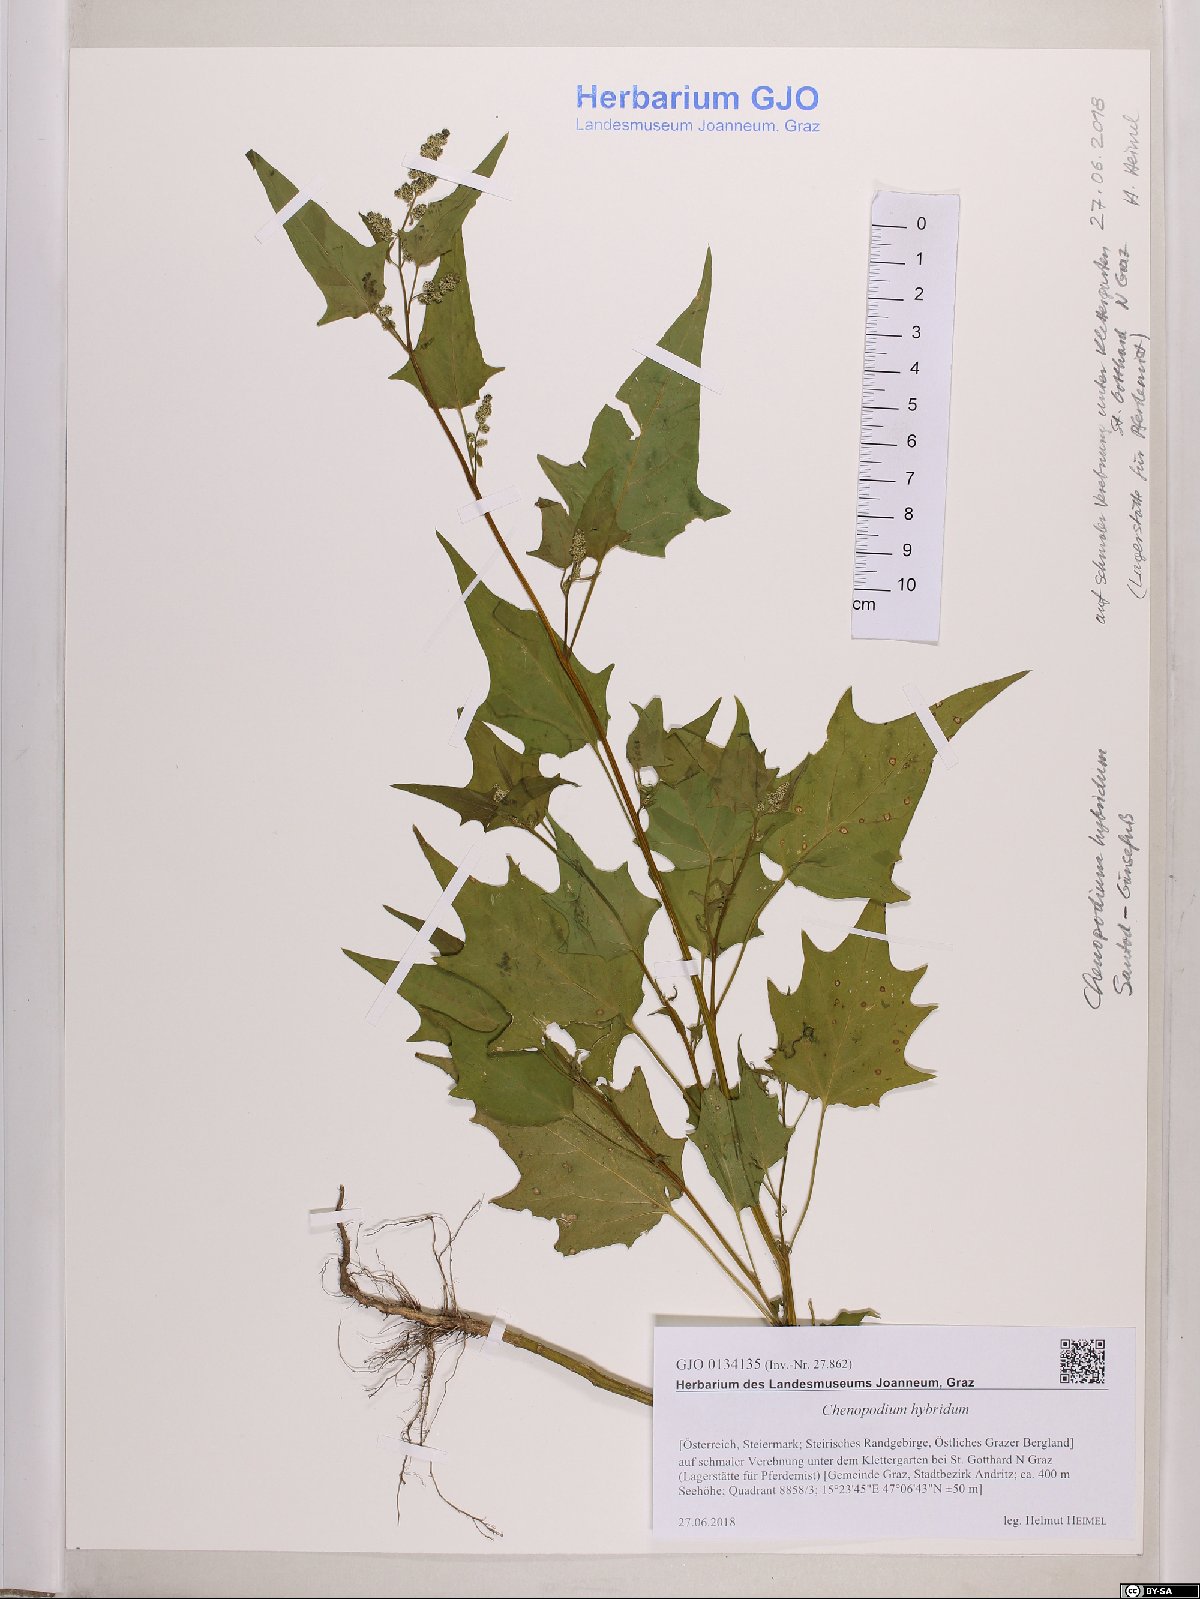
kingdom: Plantae
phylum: Tracheophyta
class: Magnoliopsida
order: Caryophyllales
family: Amaranthaceae
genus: Chenopodiastrum
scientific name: Chenopodiastrum hybridum
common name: Mapleleaf goosefoot
